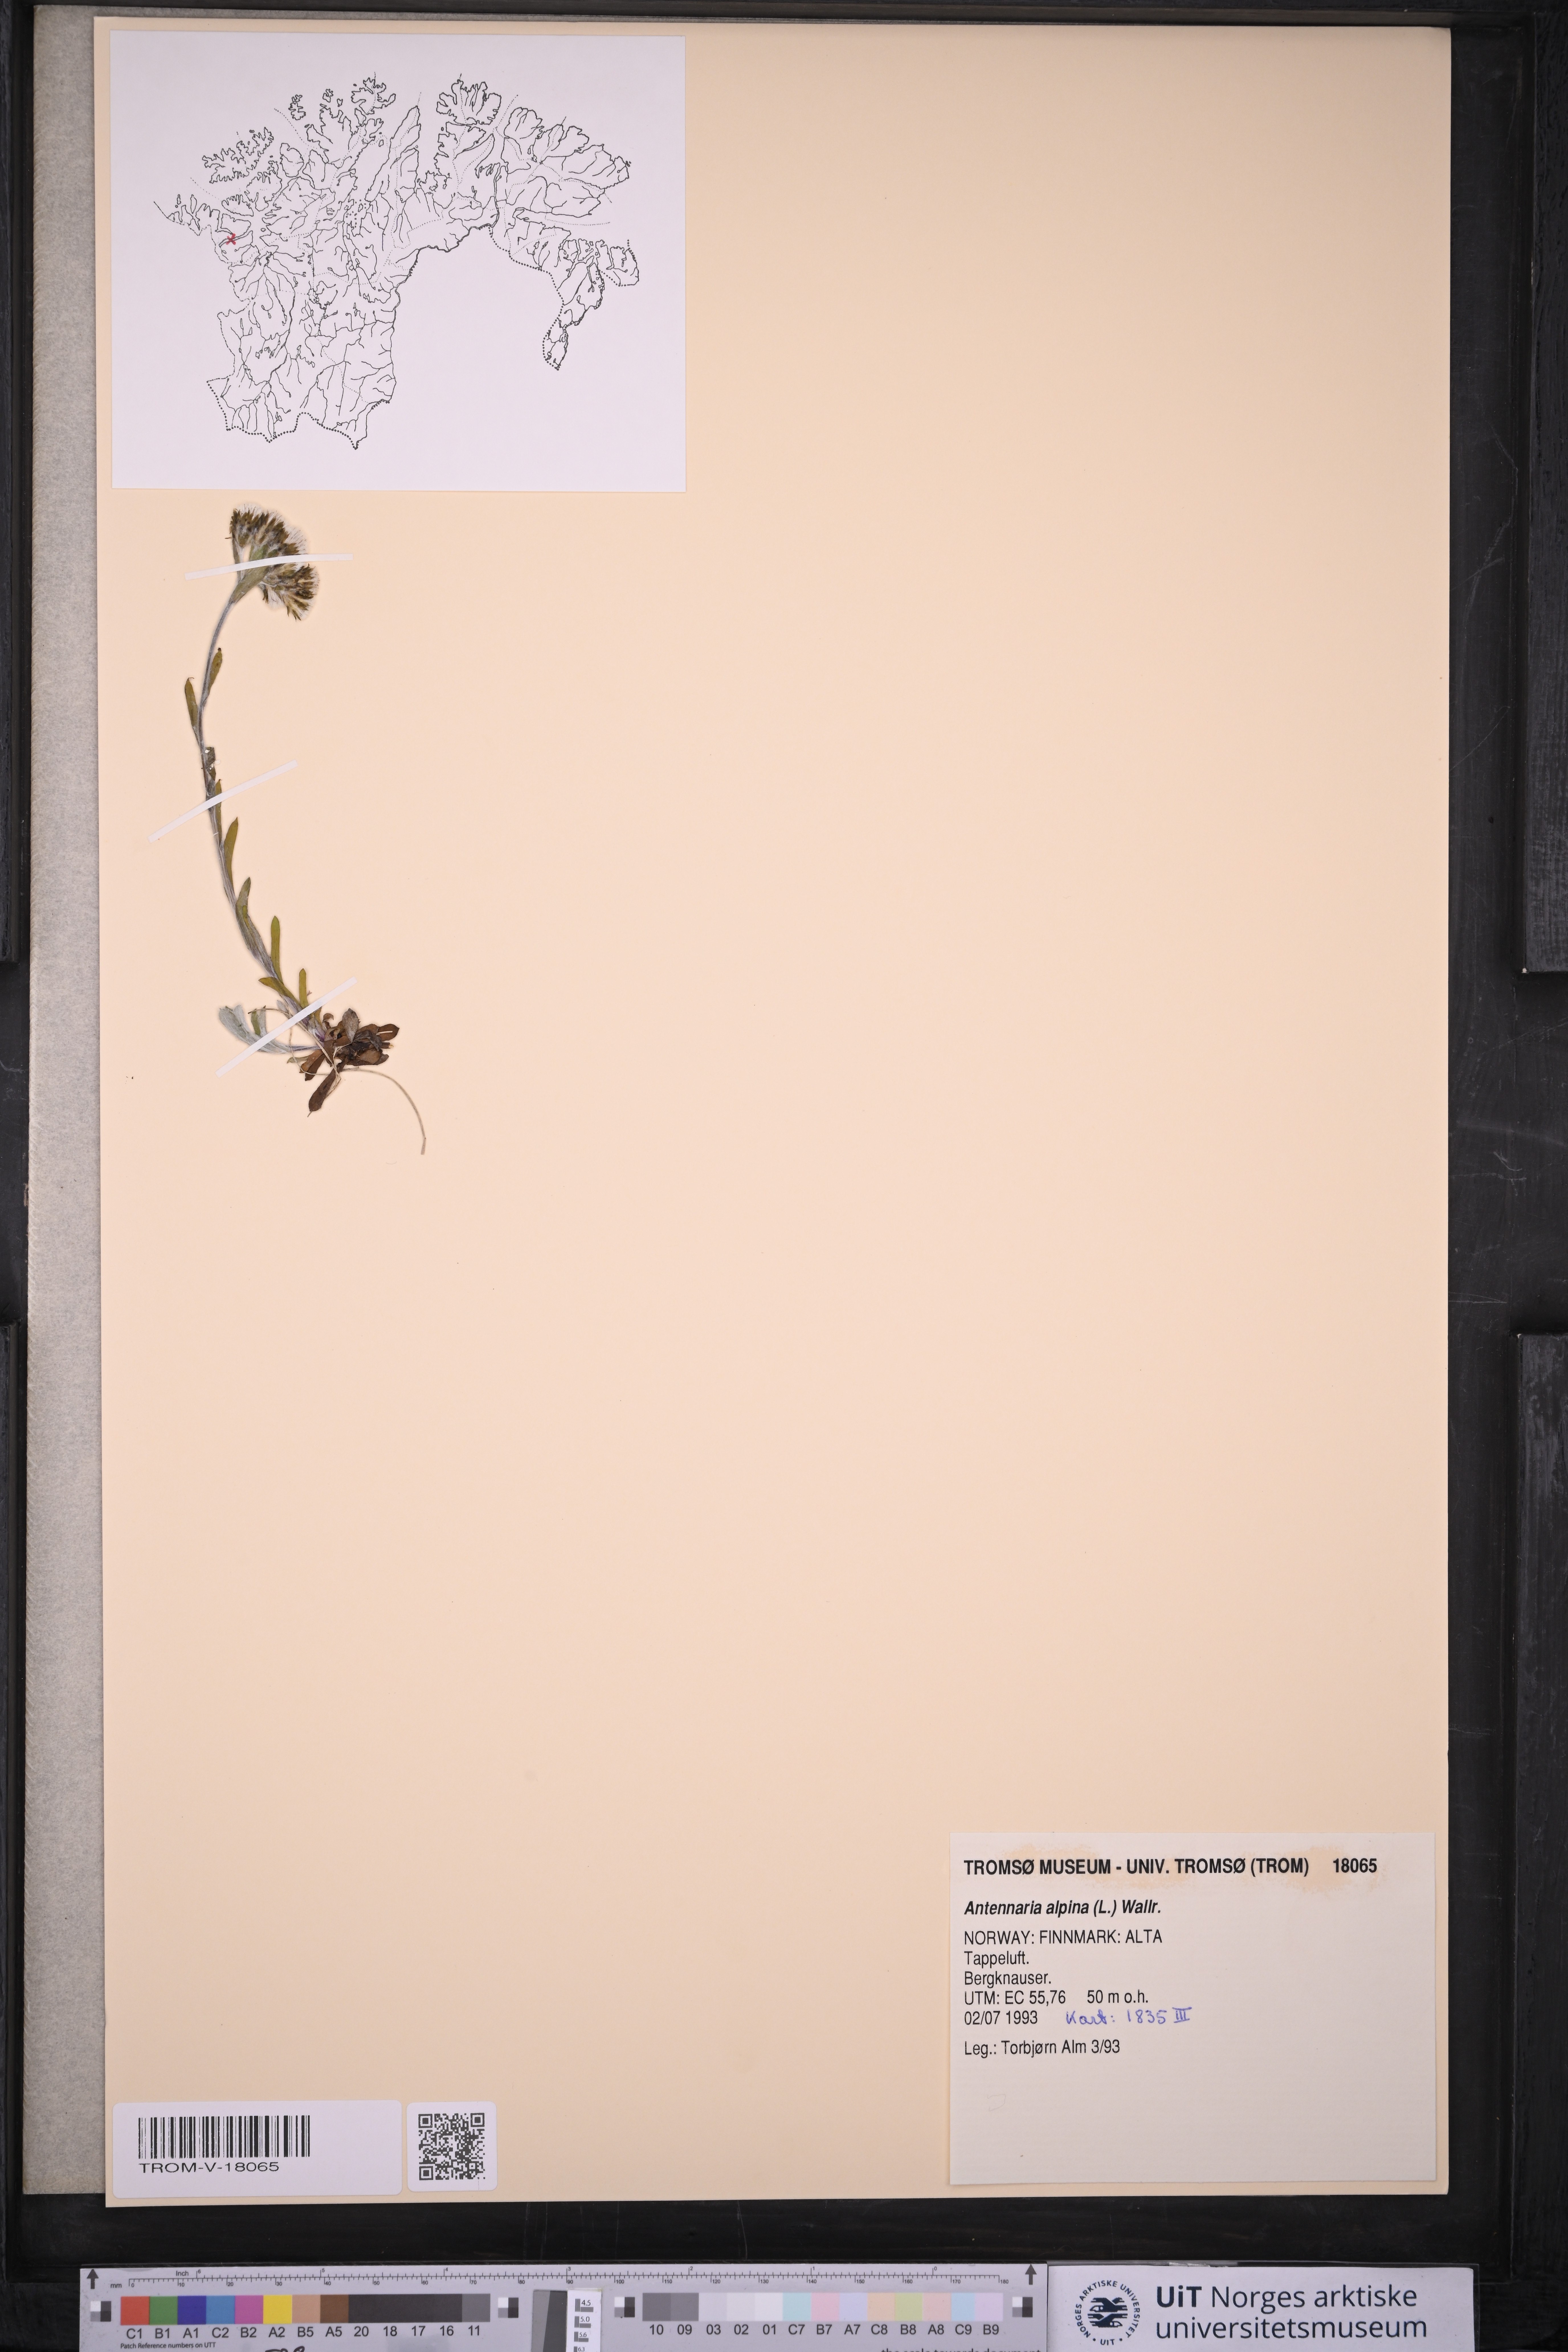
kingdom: Plantae
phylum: Tracheophyta
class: Magnoliopsida
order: Asterales
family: Asteraceae
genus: Antennaria
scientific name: Antennaria alpina
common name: Alpine pussytoes
